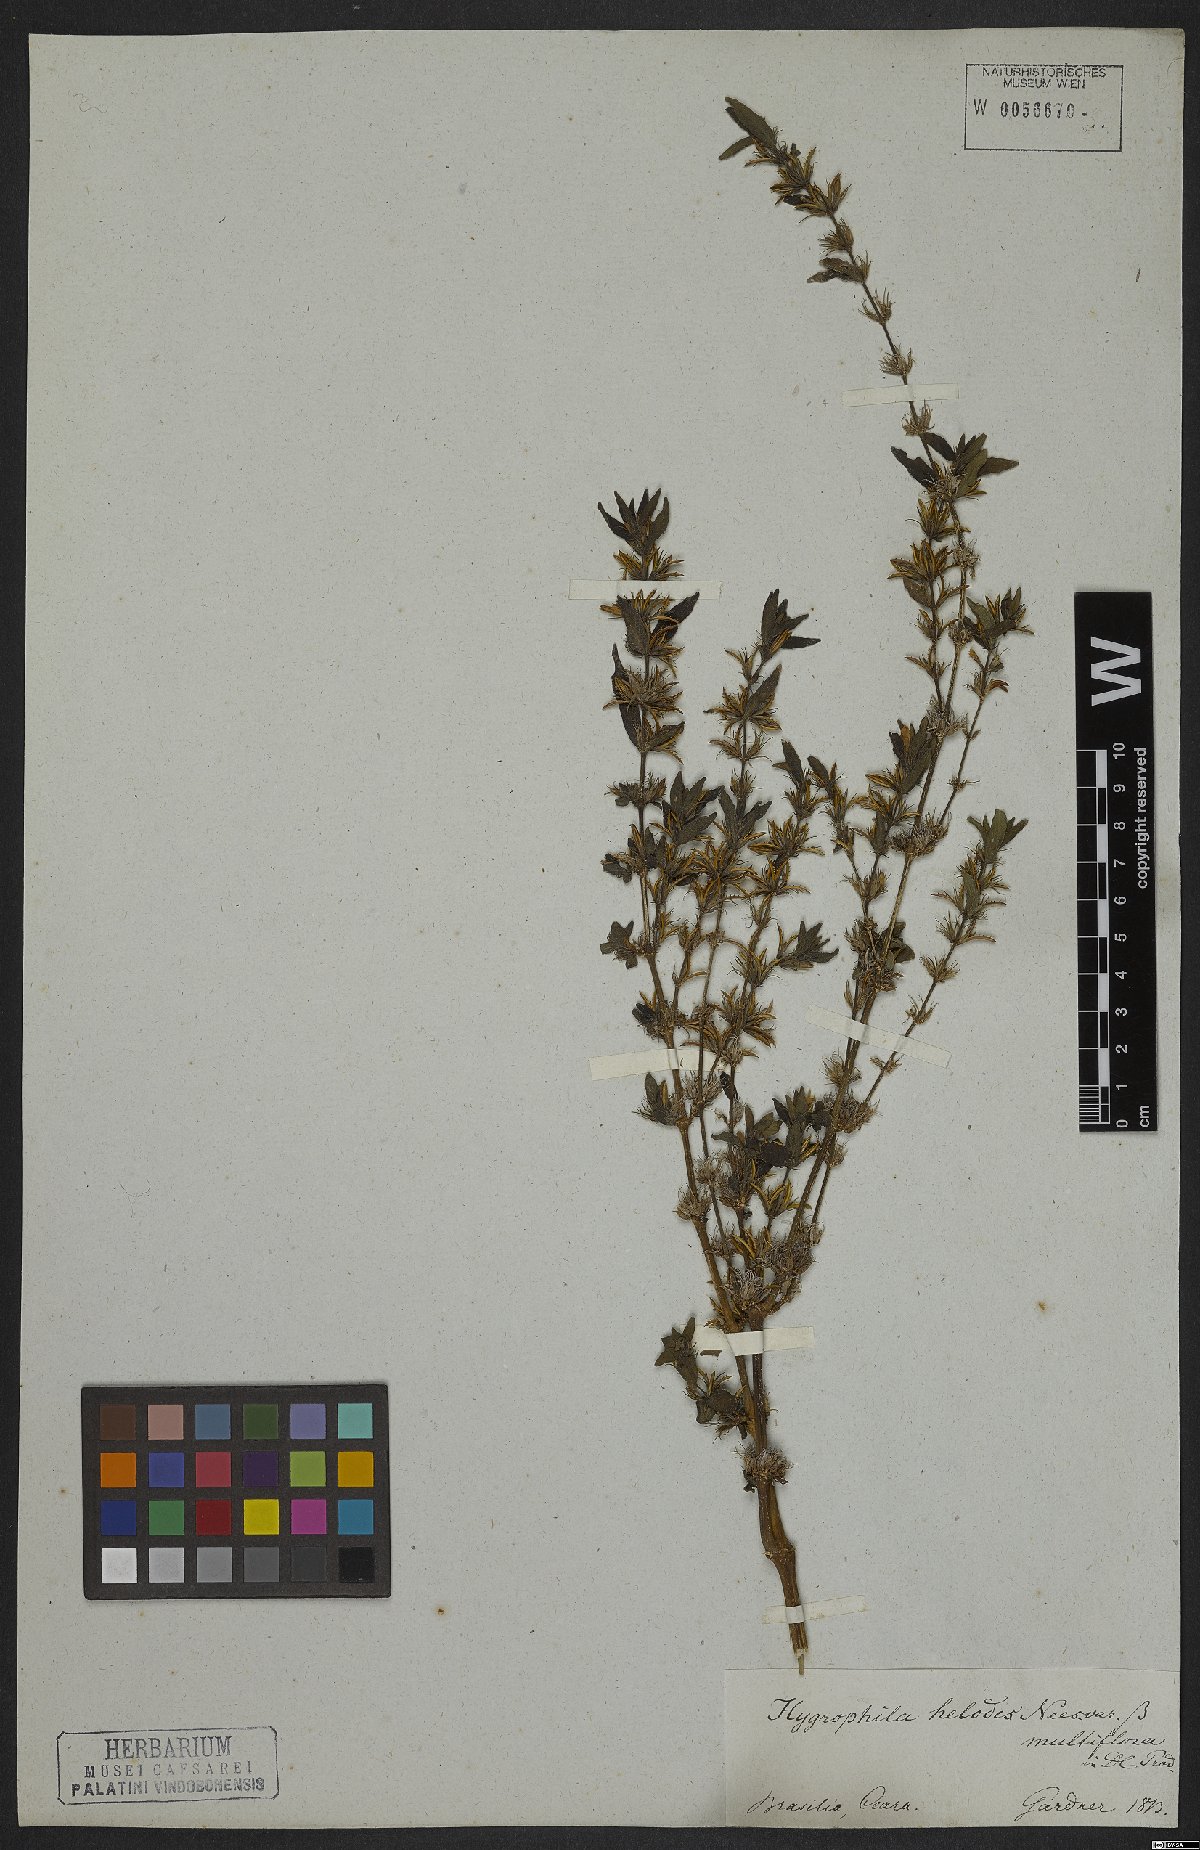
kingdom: Plantae
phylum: Tracheophyta
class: Magnoliopsida
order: Lamiales
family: Acanthaceae
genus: Hygrophila
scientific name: Hygrophila costata
